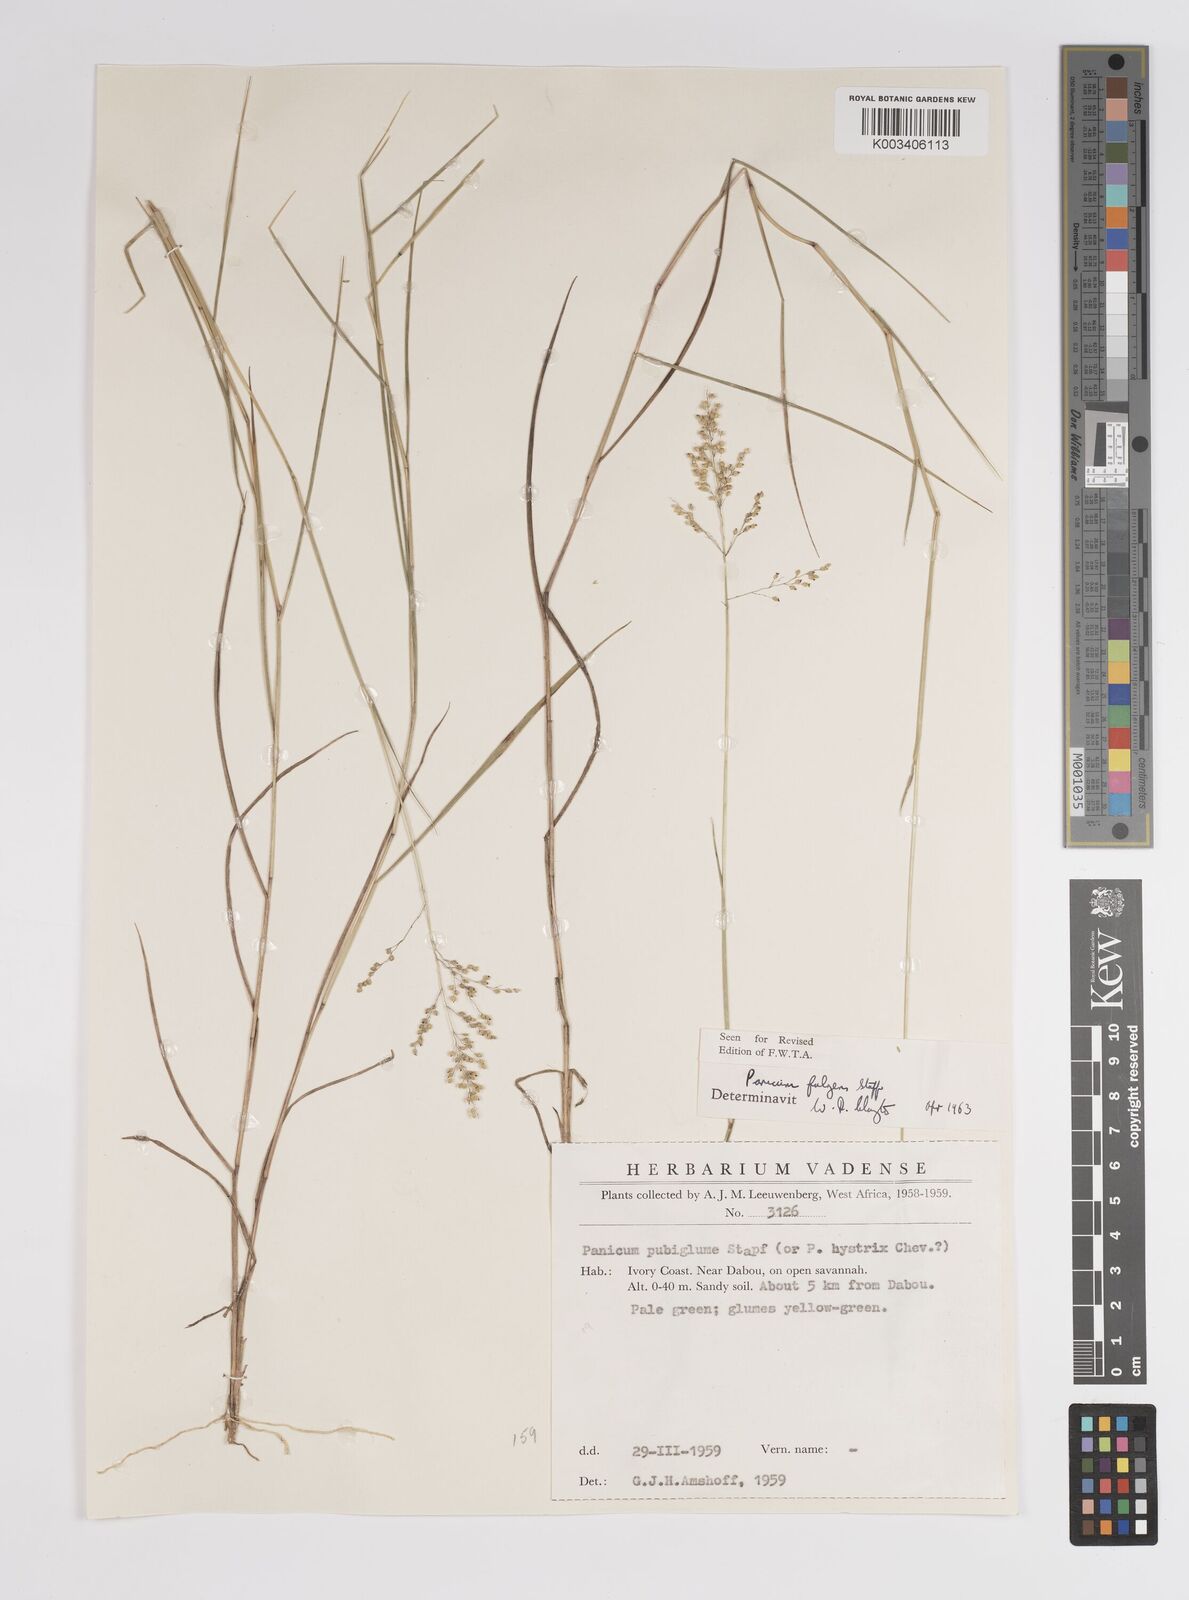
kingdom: Plantae
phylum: Tracheophyta
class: Liliopsida
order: Poales
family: Poaceae
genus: Trichanthecium
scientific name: Trichanthecium nervatum
